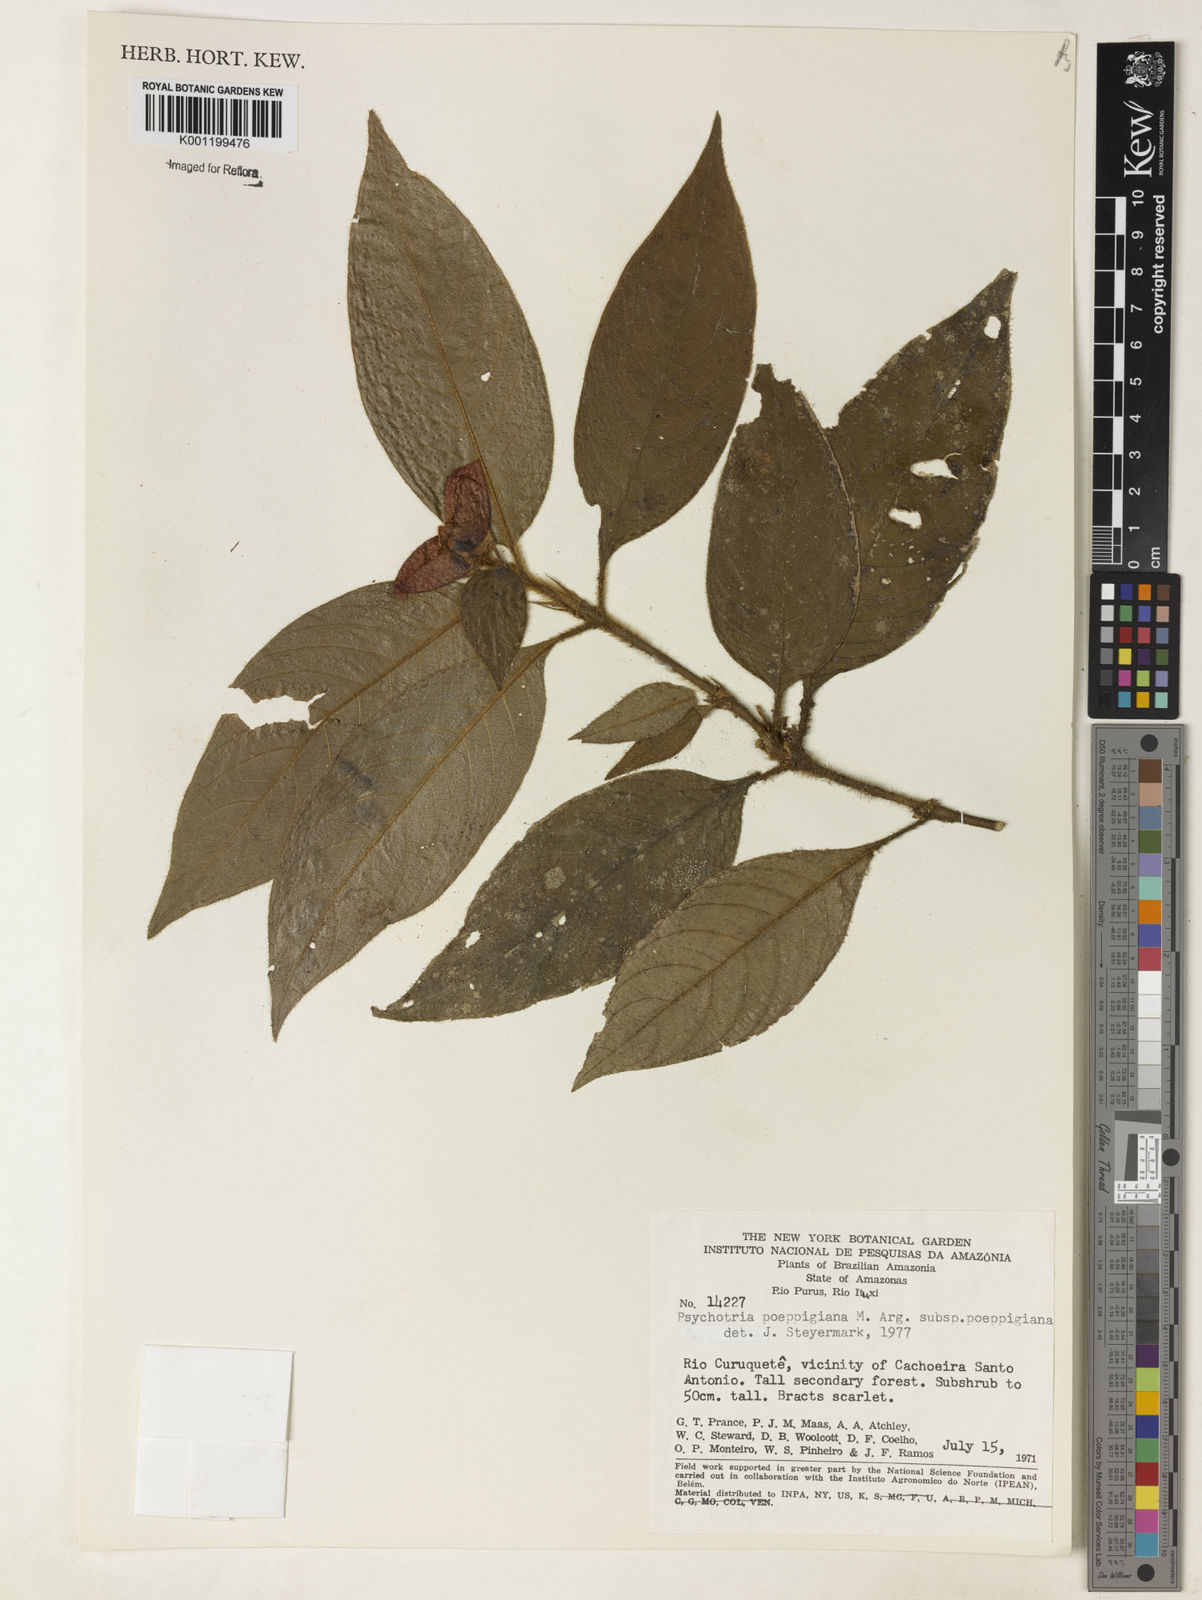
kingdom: Plantae
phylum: Tracheophyta
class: Magnoliopsida
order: Gentianales
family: Rubiaceae
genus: Psychotria
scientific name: Psychotria
